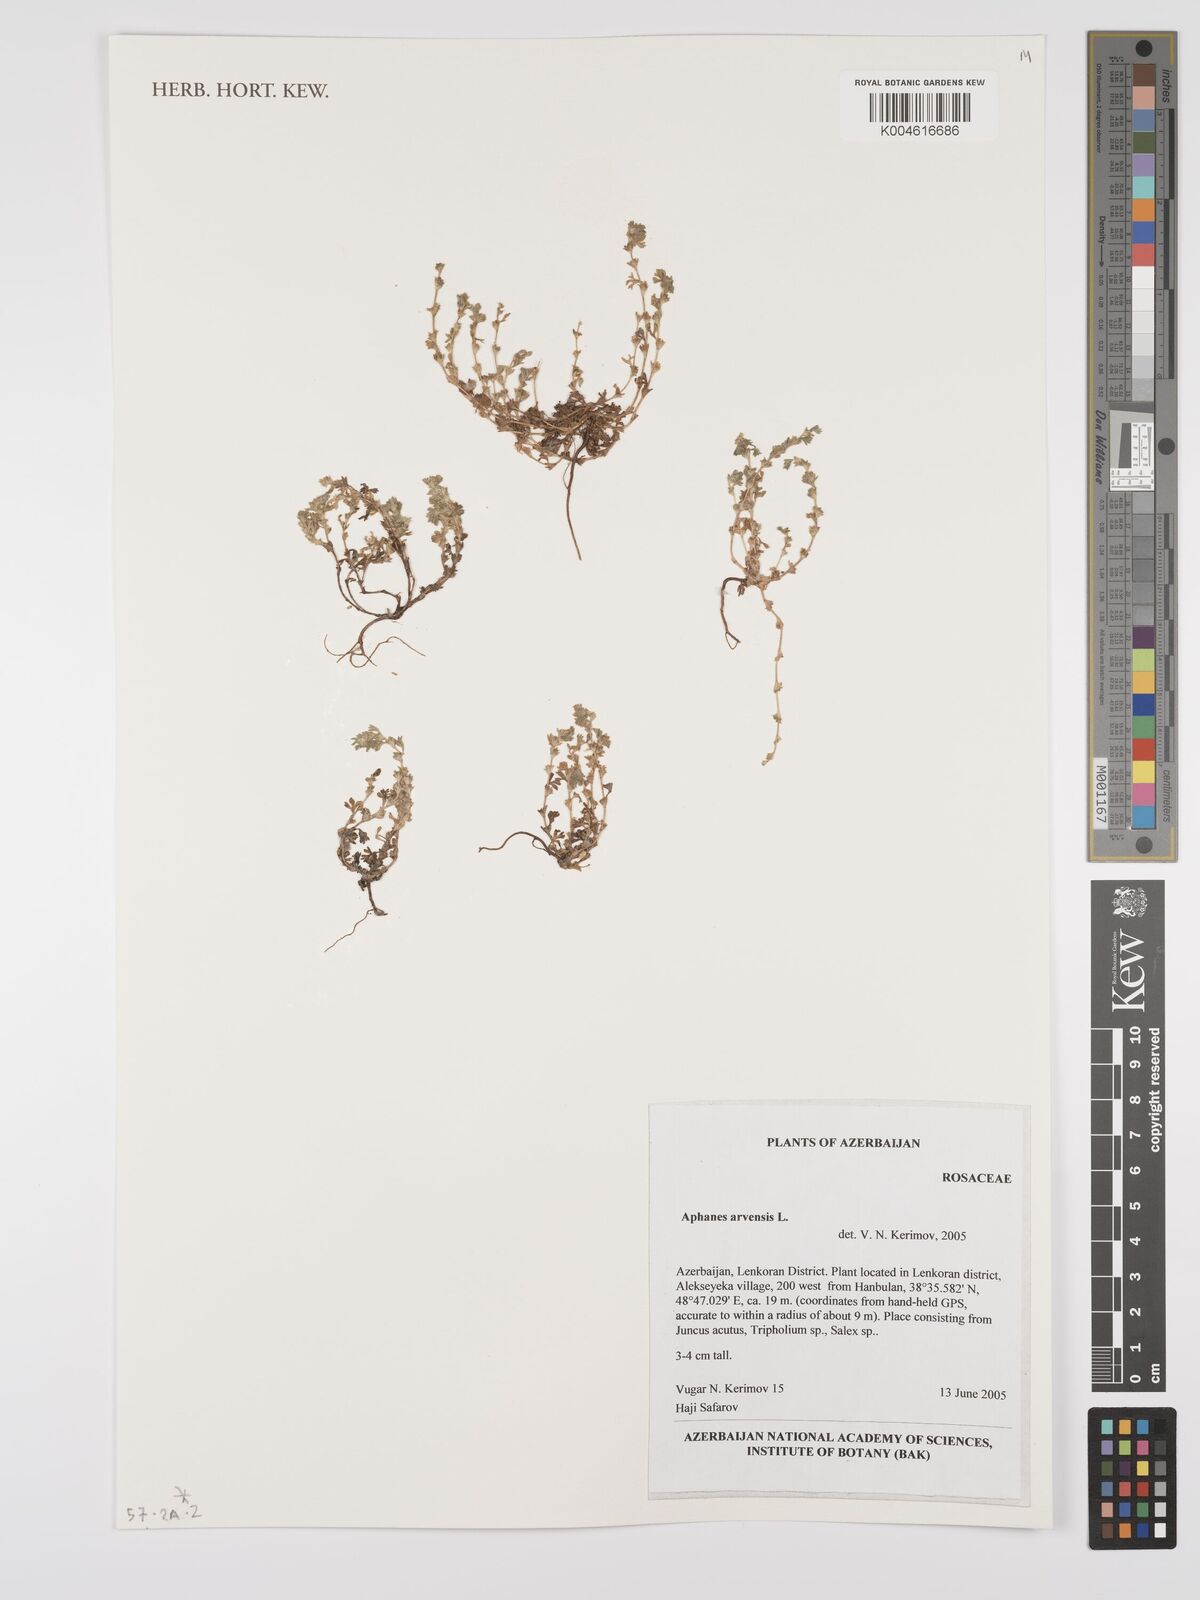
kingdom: Plantae
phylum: Tracheophyta
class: Magnoliopsida
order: Rosales
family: Rosaceae
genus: Aphanes
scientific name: Aphanes arvensis
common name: Parsley-piert
